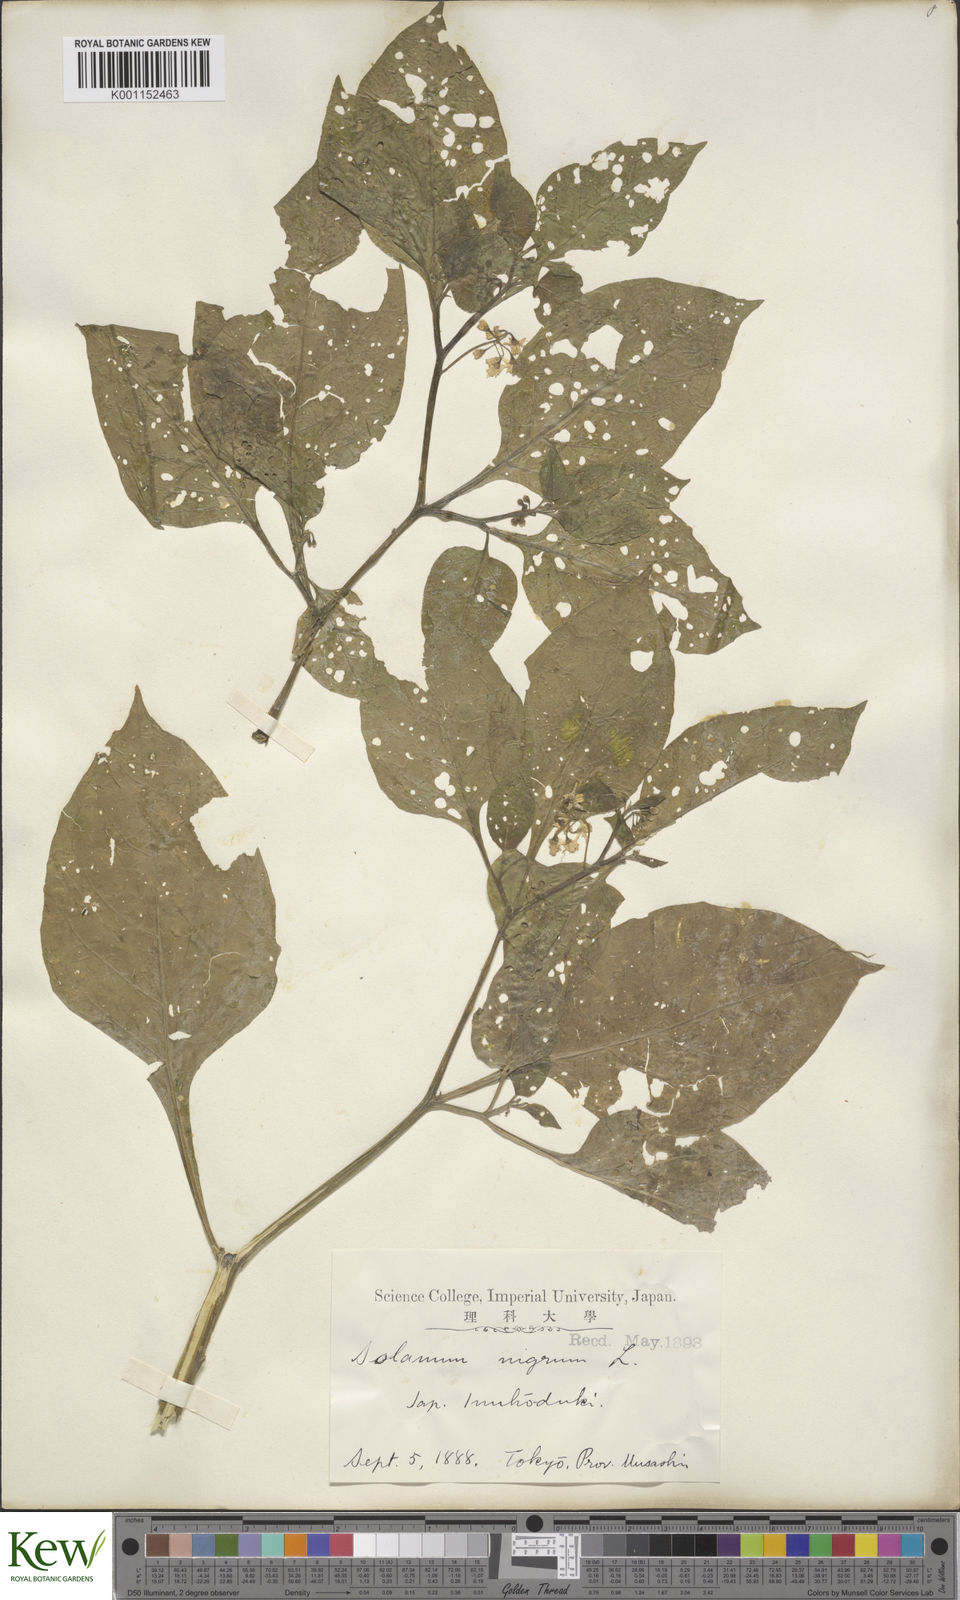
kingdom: Plantae
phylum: Tracheophyta
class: Magnoliopsida
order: Solanales
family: Solanaceae
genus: Solanum
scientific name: Solanum
